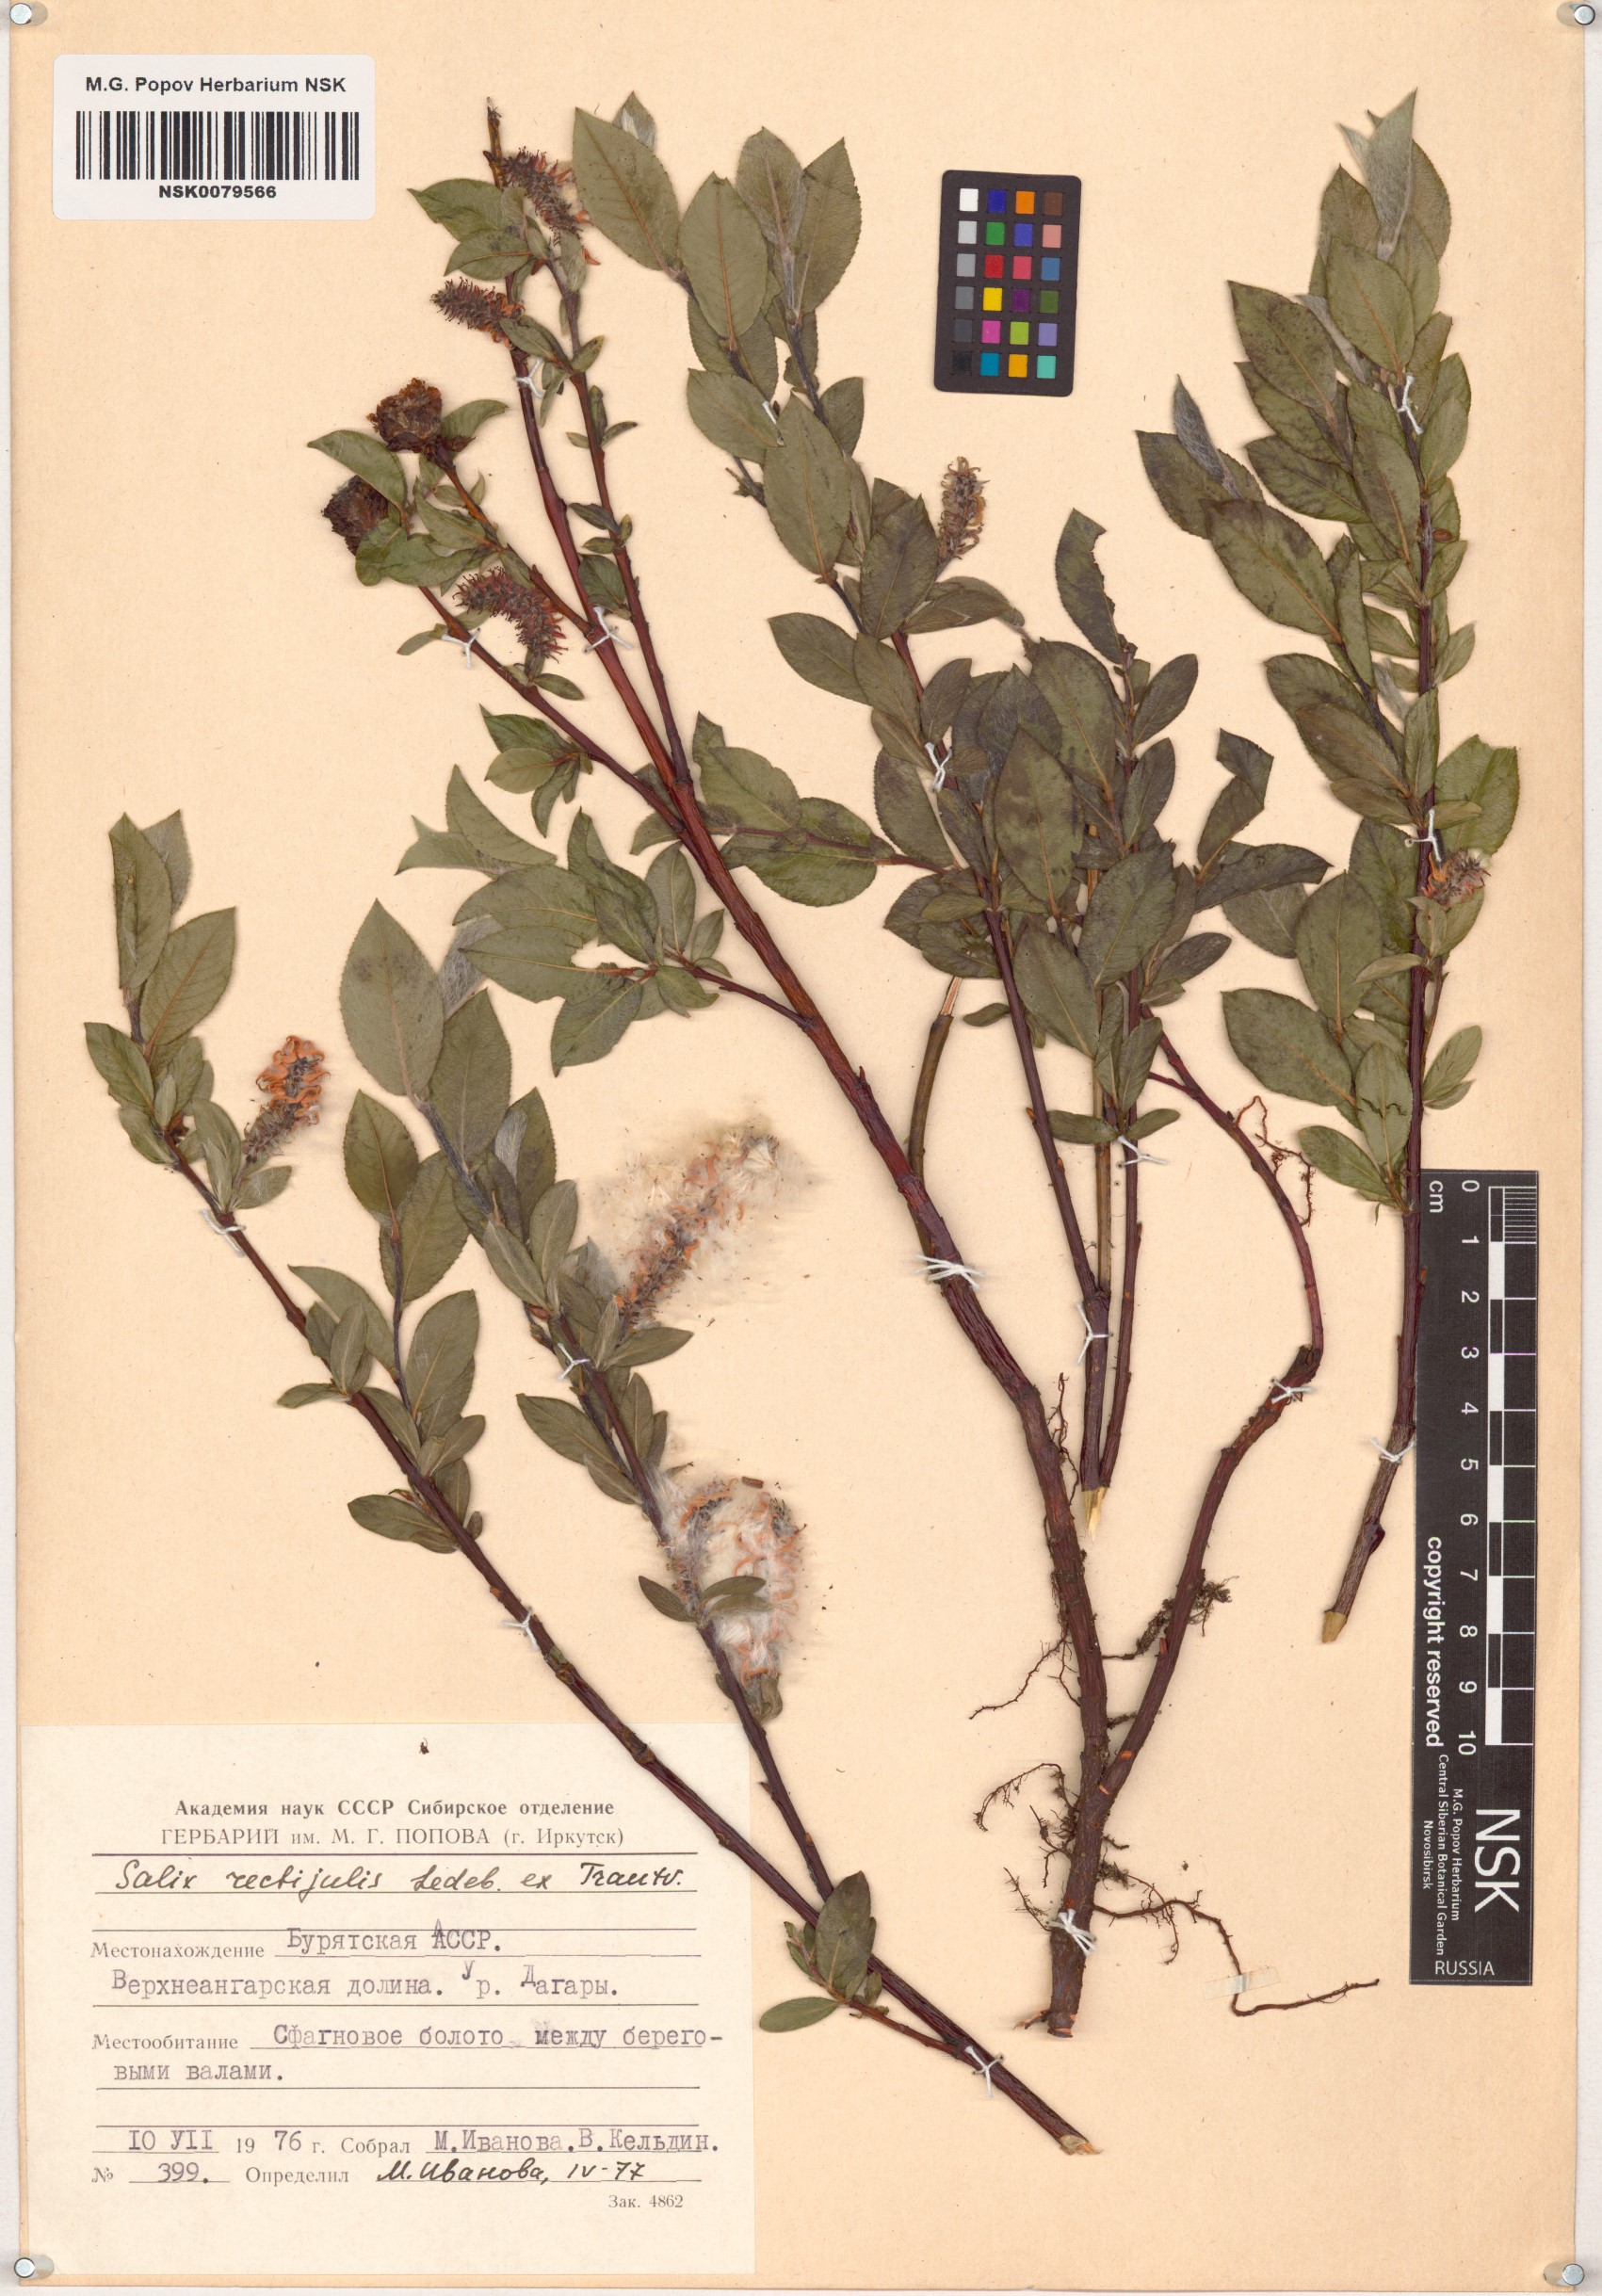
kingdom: Plantae
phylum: Tracheophyta
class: Magnoliopsida
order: Malpighiales
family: Salicaceae
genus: Salix
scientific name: Salix rectijulis
